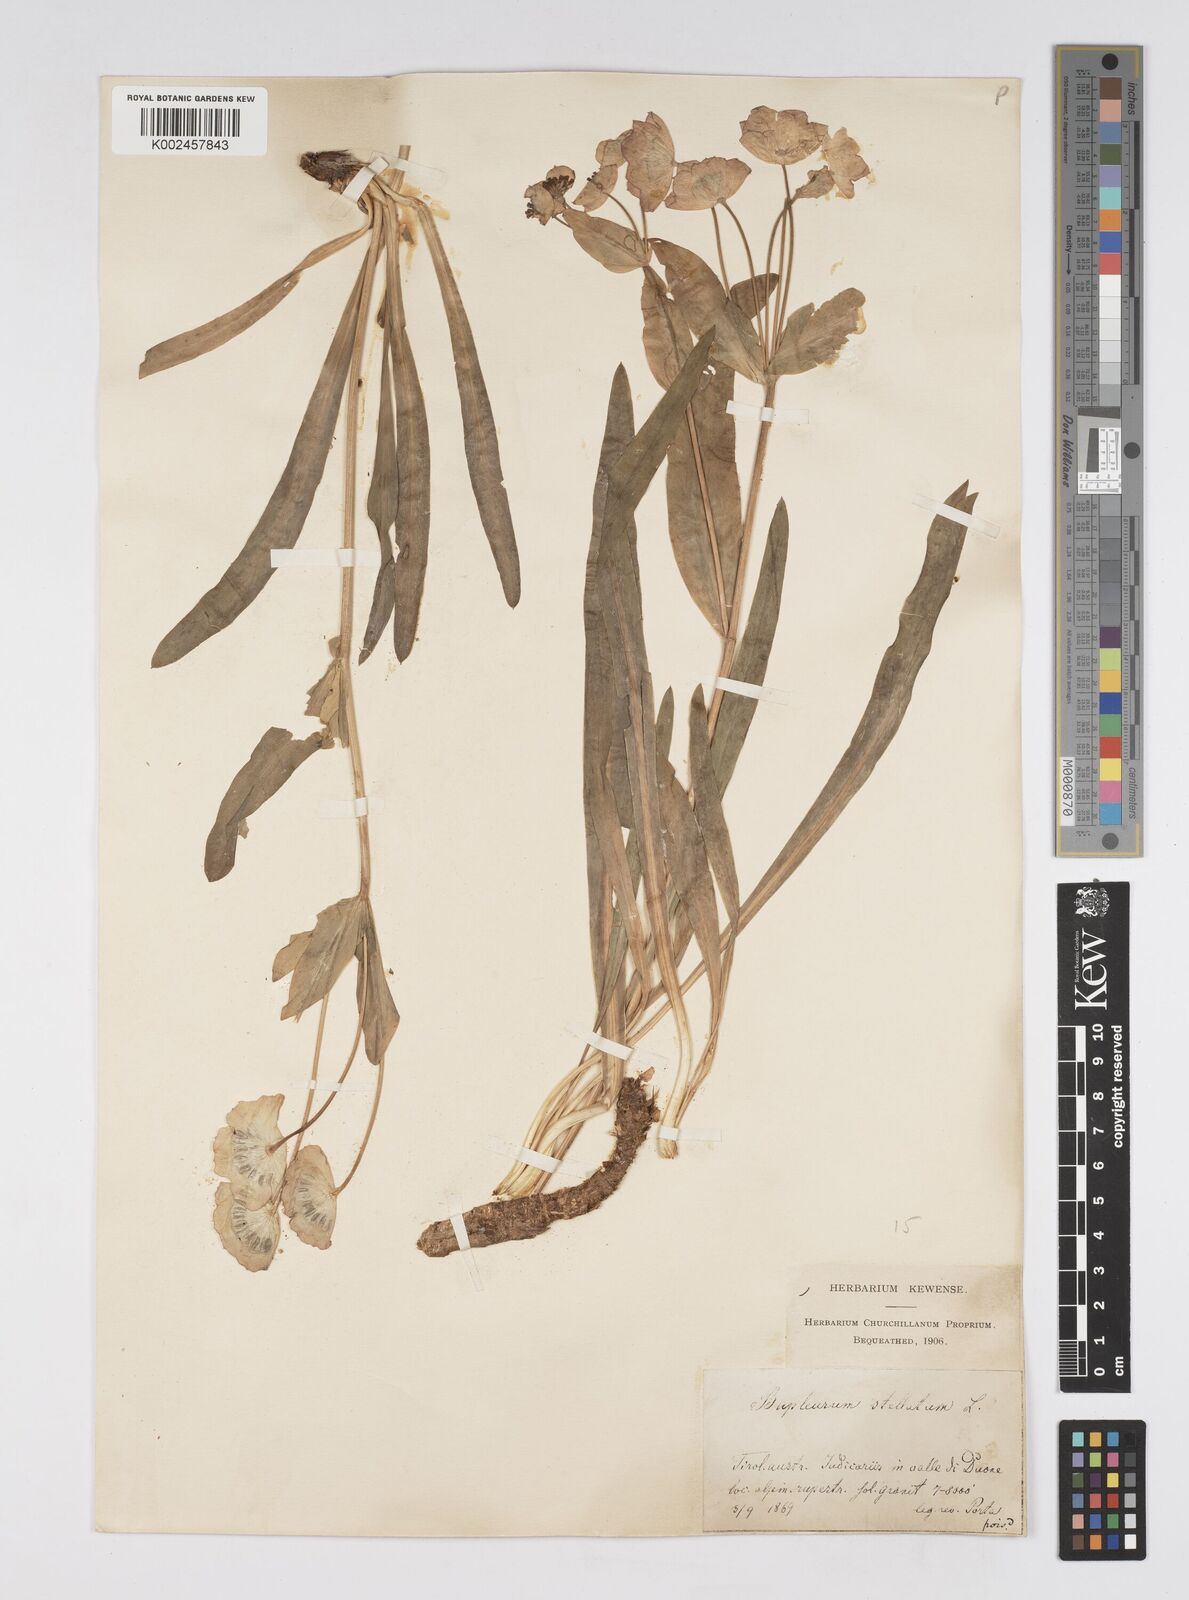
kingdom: Plantae
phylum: Tracheophyta
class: Magnoliopsida
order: Apiales
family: Apiaceae
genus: Bupleurum
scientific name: Bupleurum stellatum
